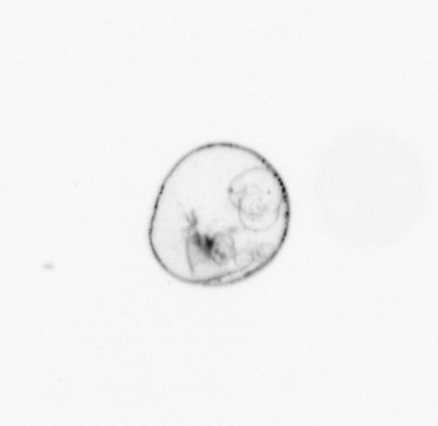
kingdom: Chromista
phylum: Myzozoa
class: Dinophyceae
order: Noctilucales
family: Noctilucaceae
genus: Noctiluca
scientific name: Noctiluca scintillans
